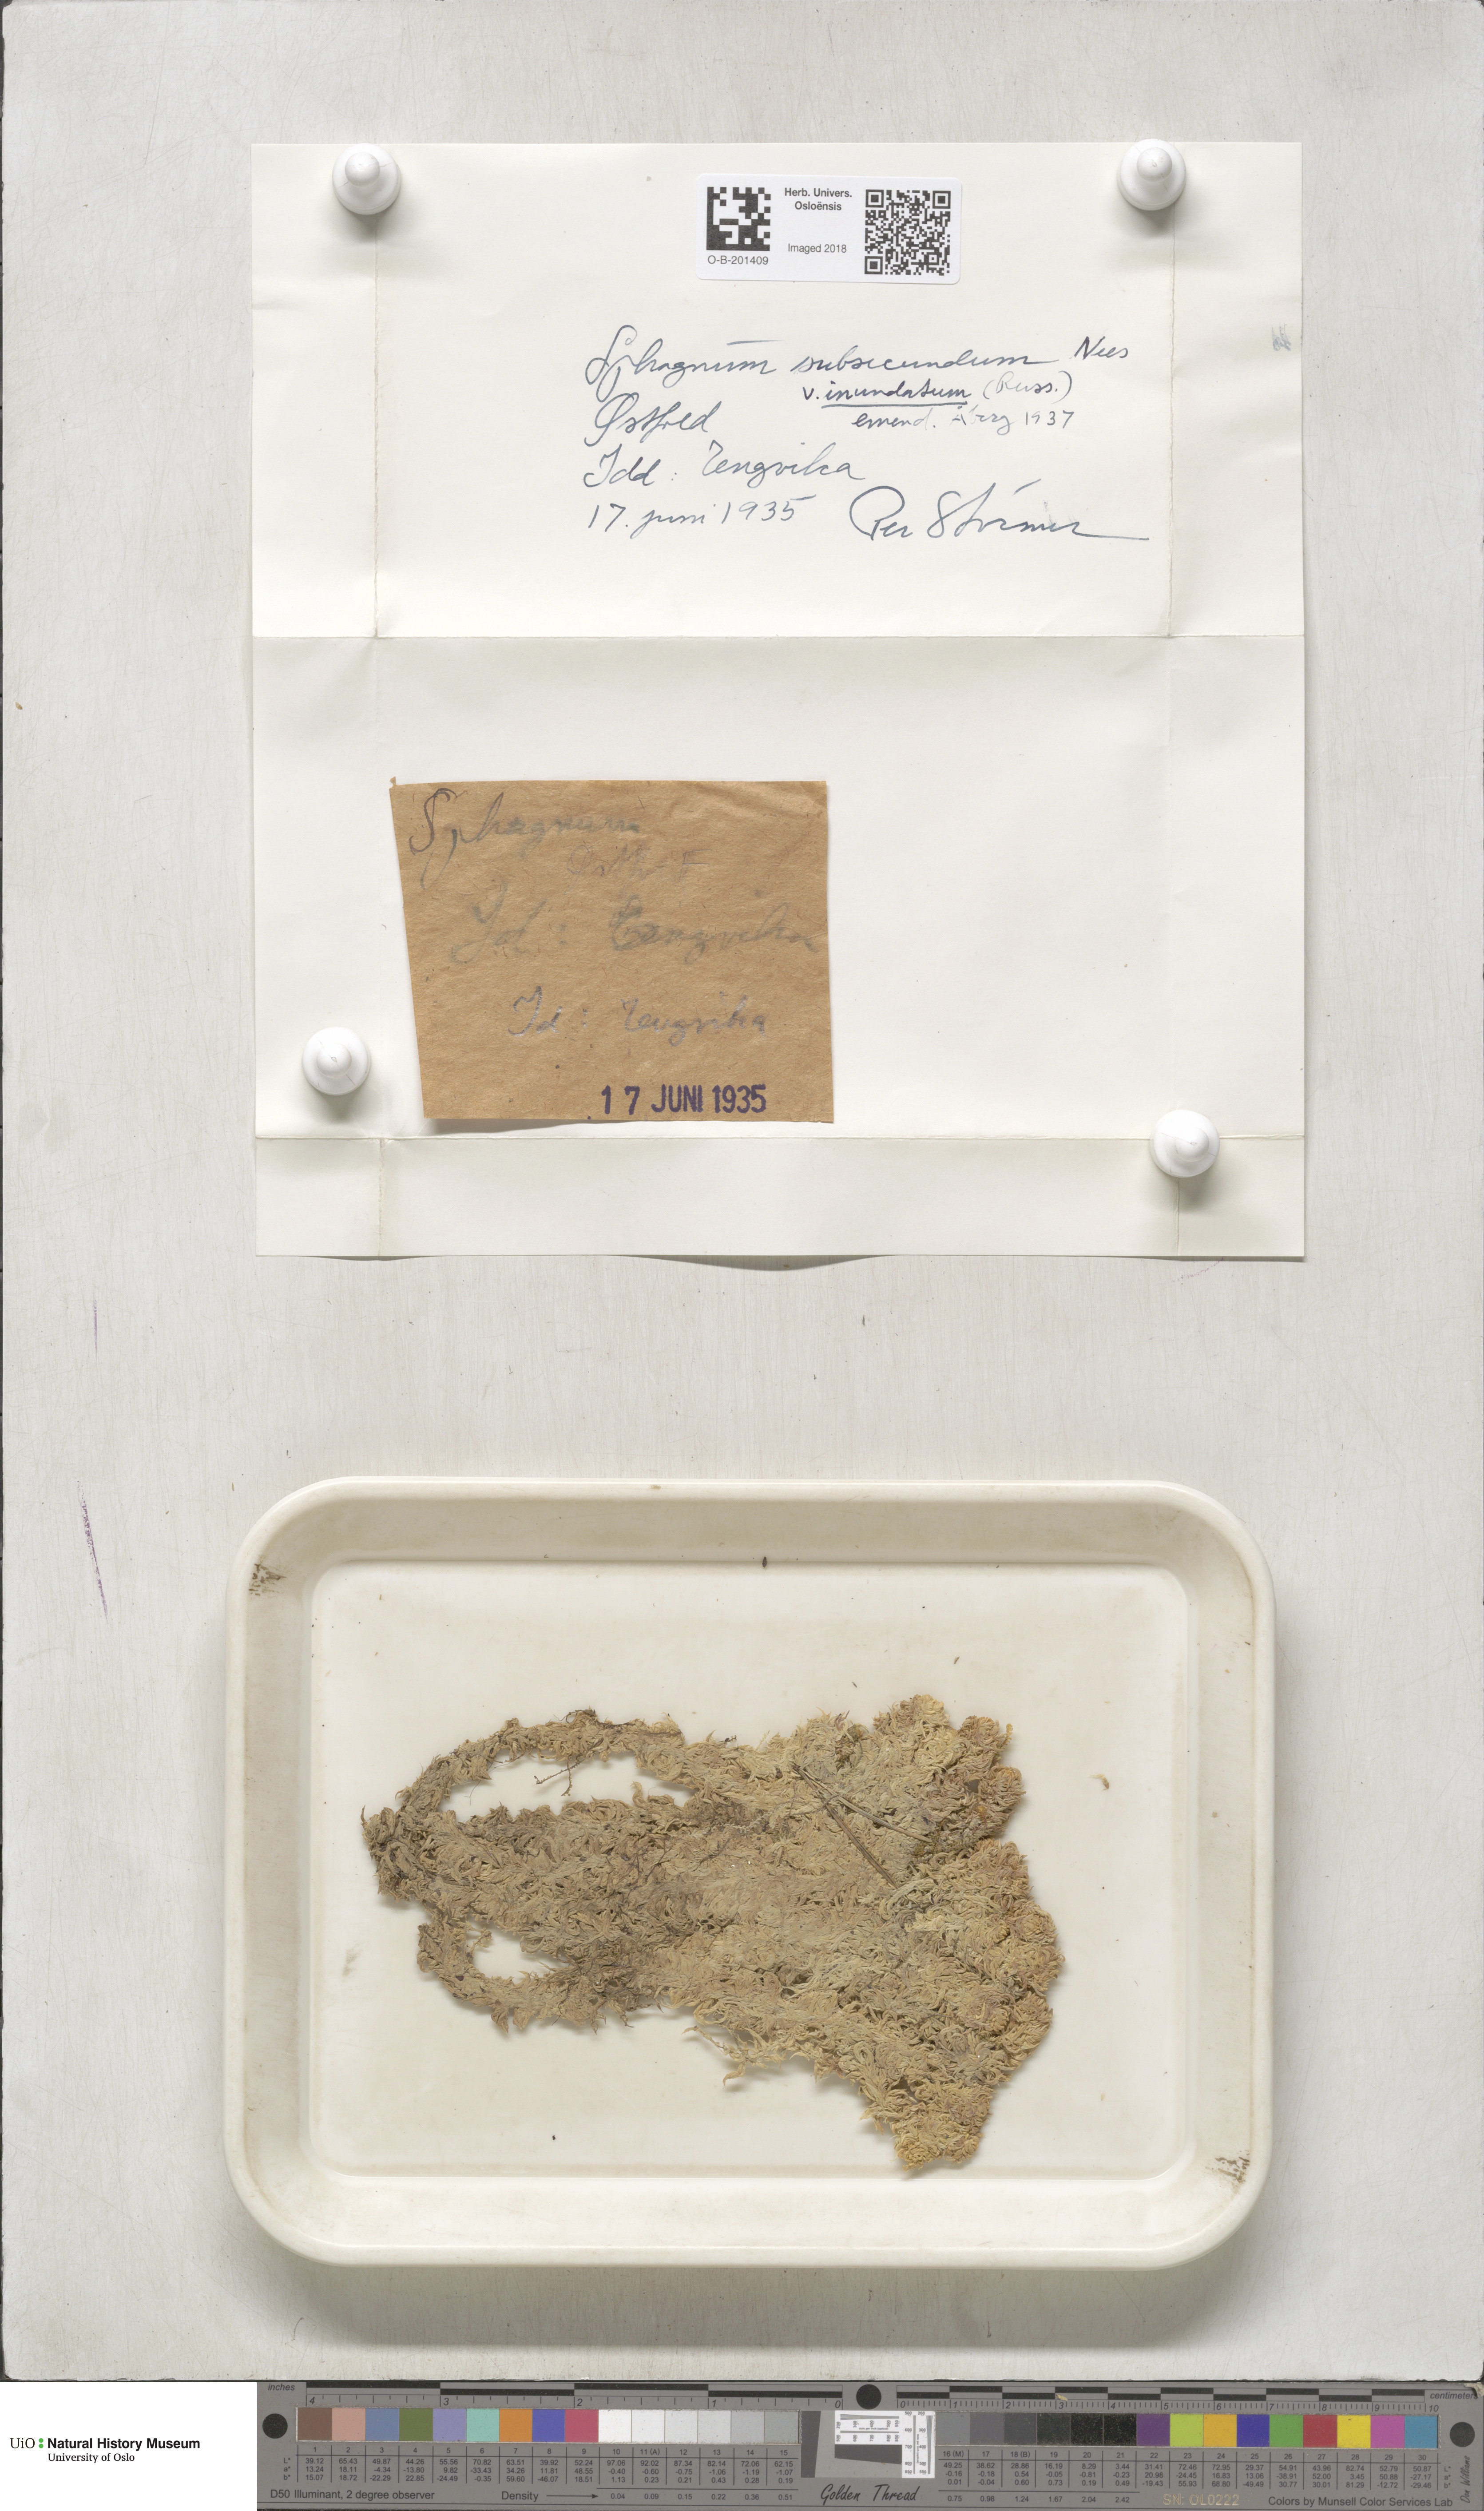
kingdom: Plantae
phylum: Bryophyta
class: Sphagnopsida
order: Sphagnales
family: Sphagnaceae
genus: Sphagnum
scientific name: Sphagnum inundatum
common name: Lesser cow-horn bog-moss
